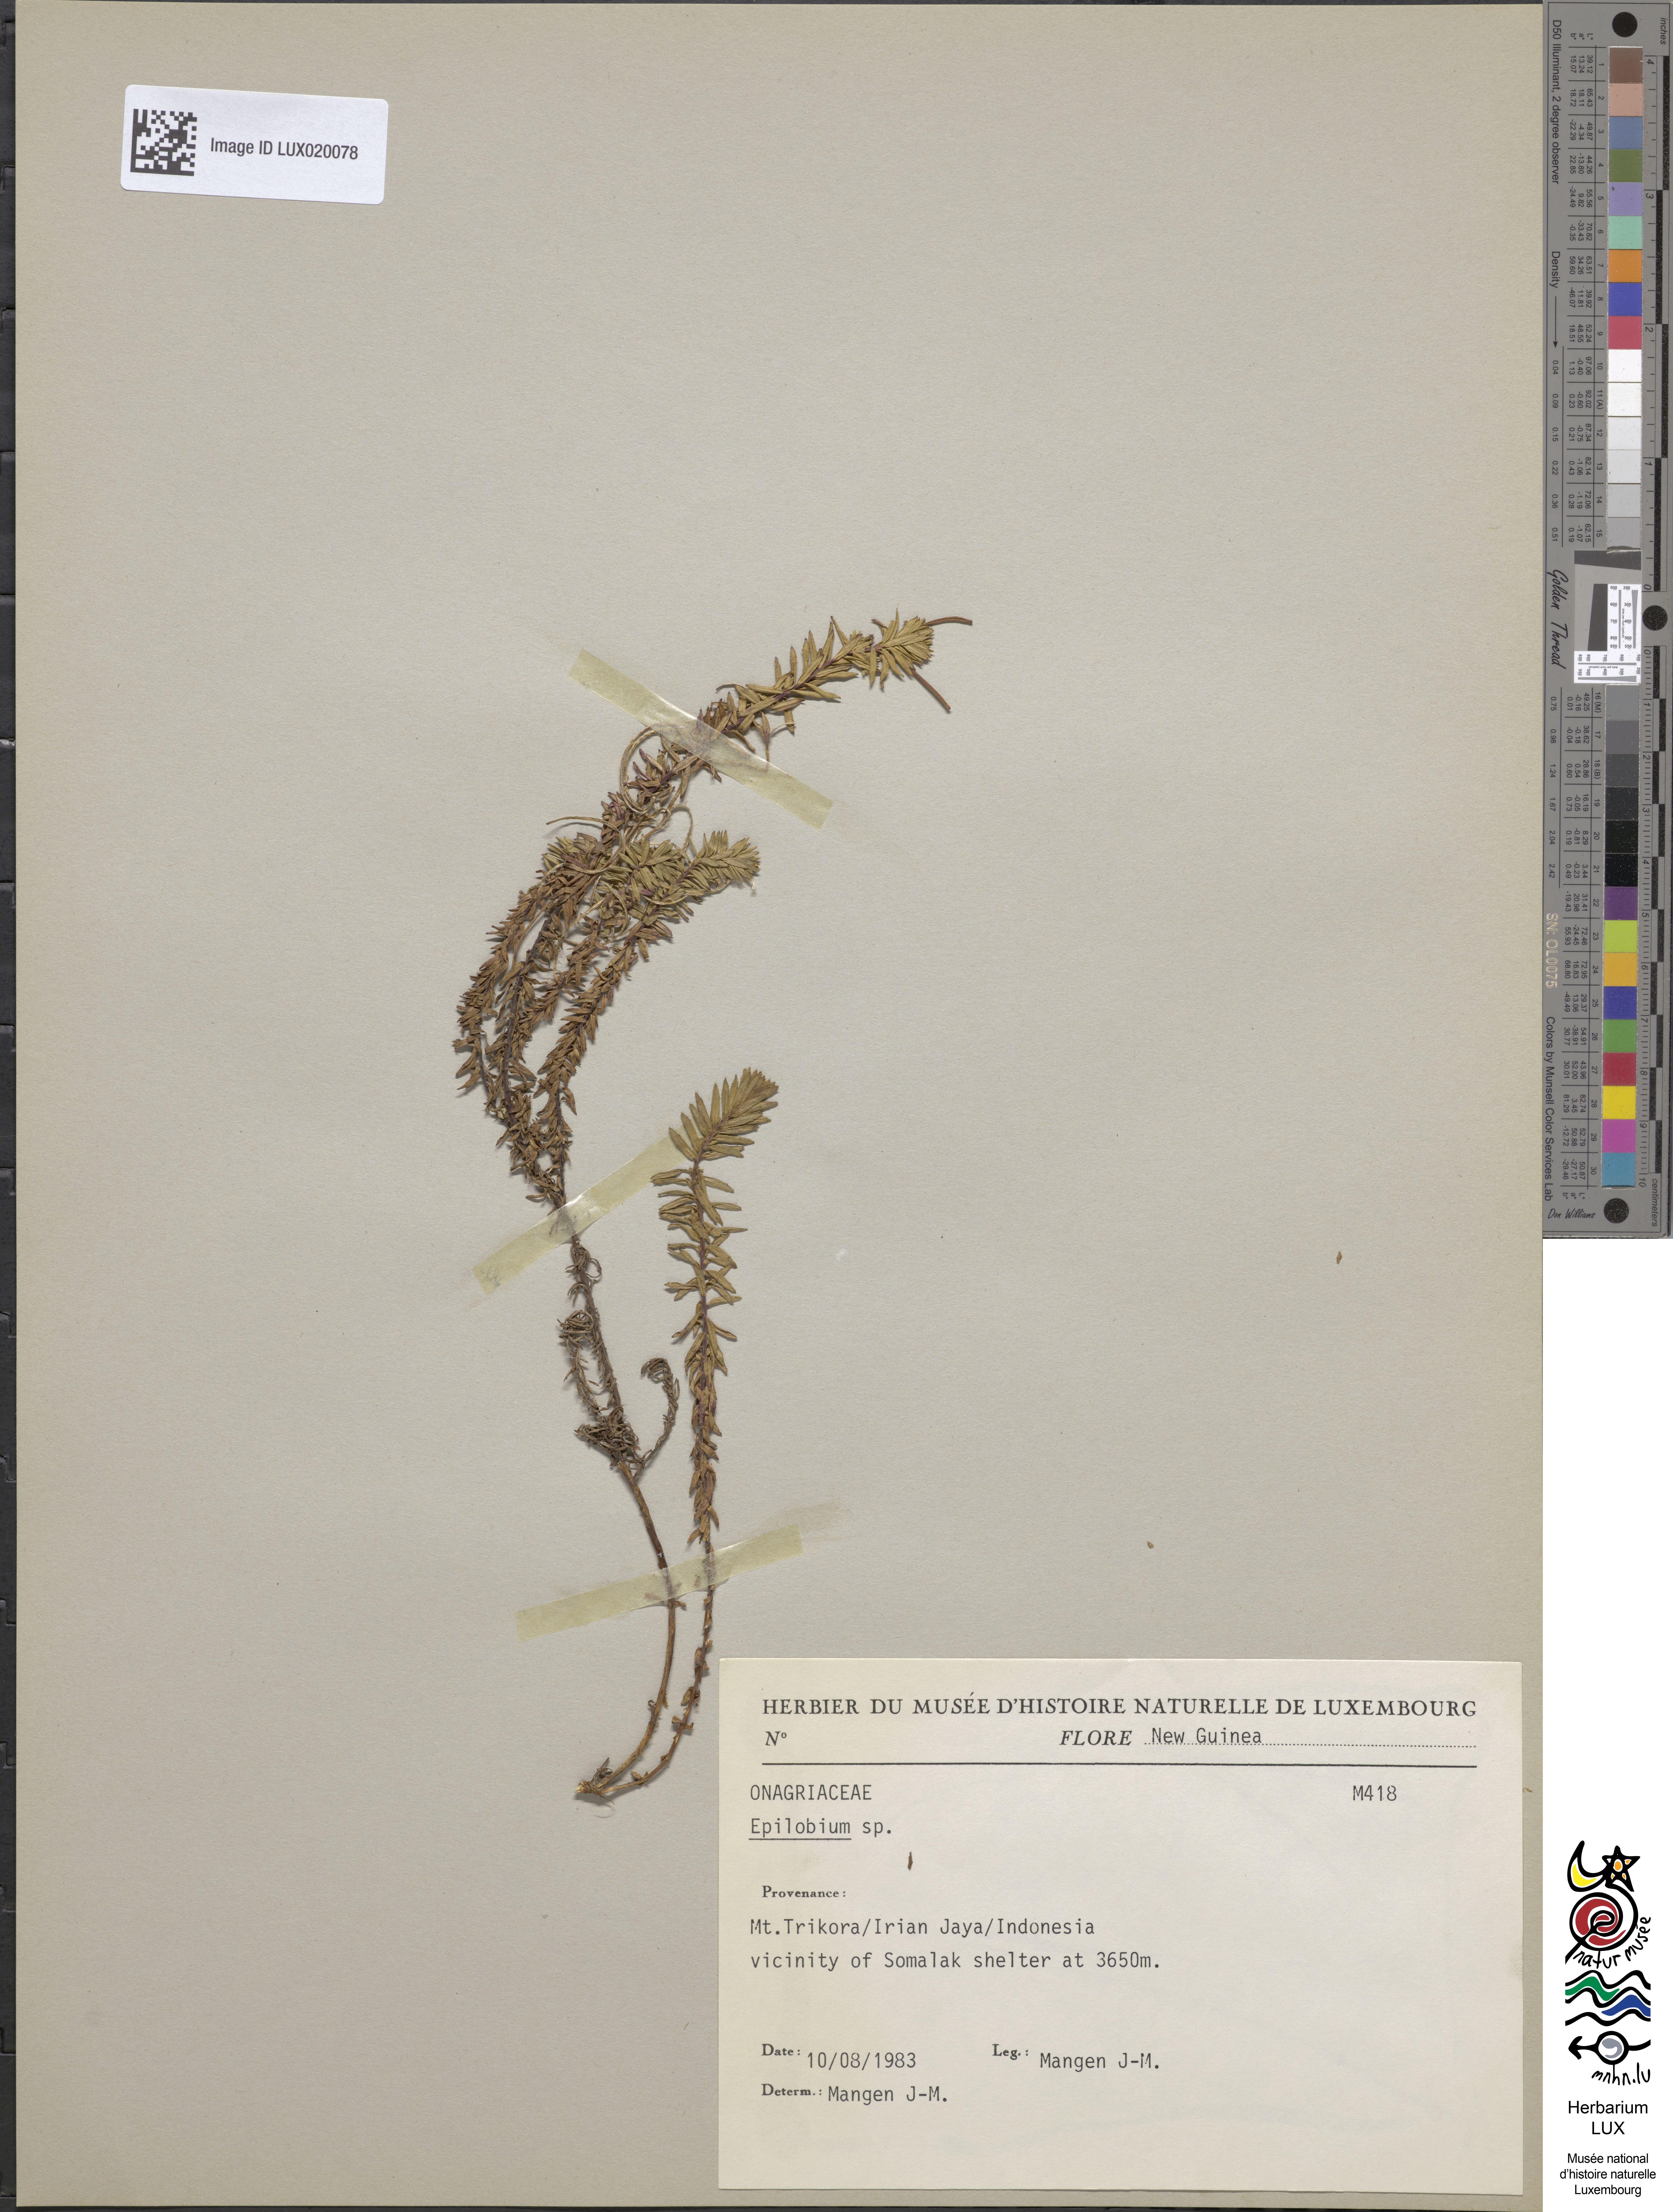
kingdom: Plantae
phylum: Tracheophyta
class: Magnoliopsida
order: Myrtales
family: Onagraceae
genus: Epilobium
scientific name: Epilobium
